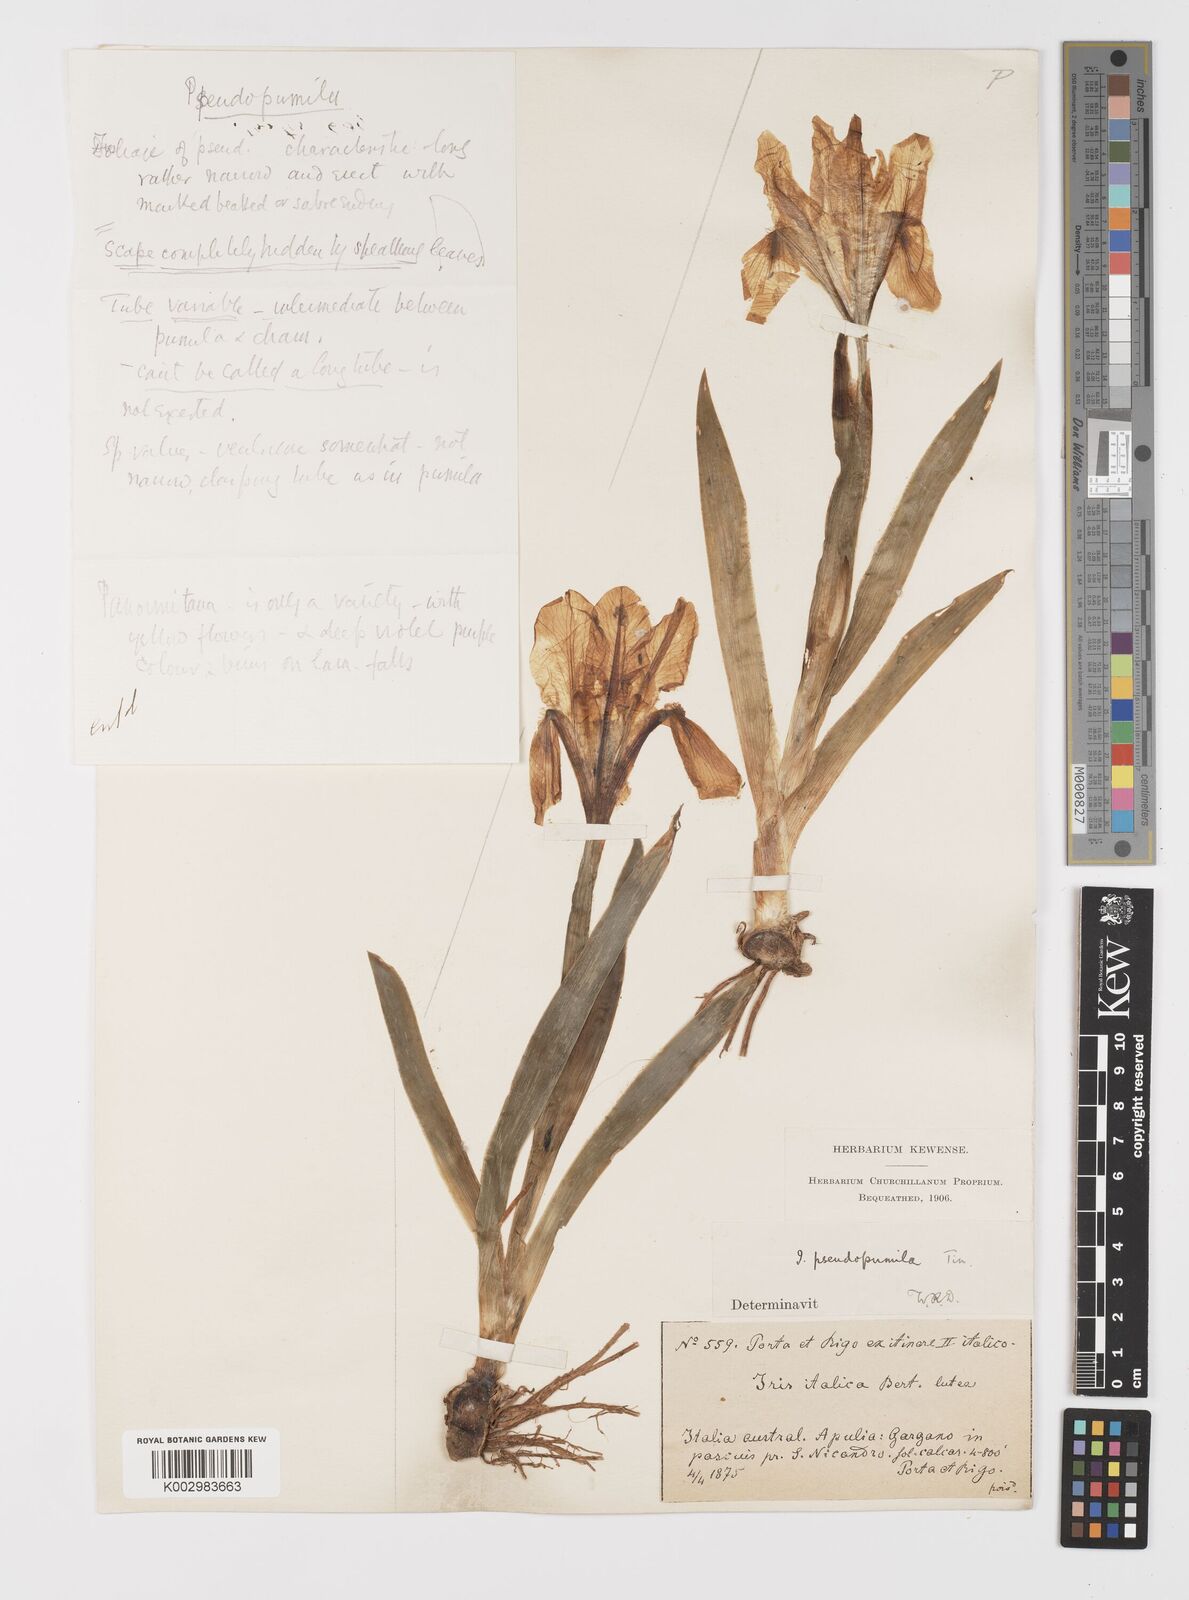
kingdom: Plantae
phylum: Tracheophyta
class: Liliopsida
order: Asparagales
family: Iridaceae
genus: Iris
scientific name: Iris pseudopumila
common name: Southern dwarf iris
